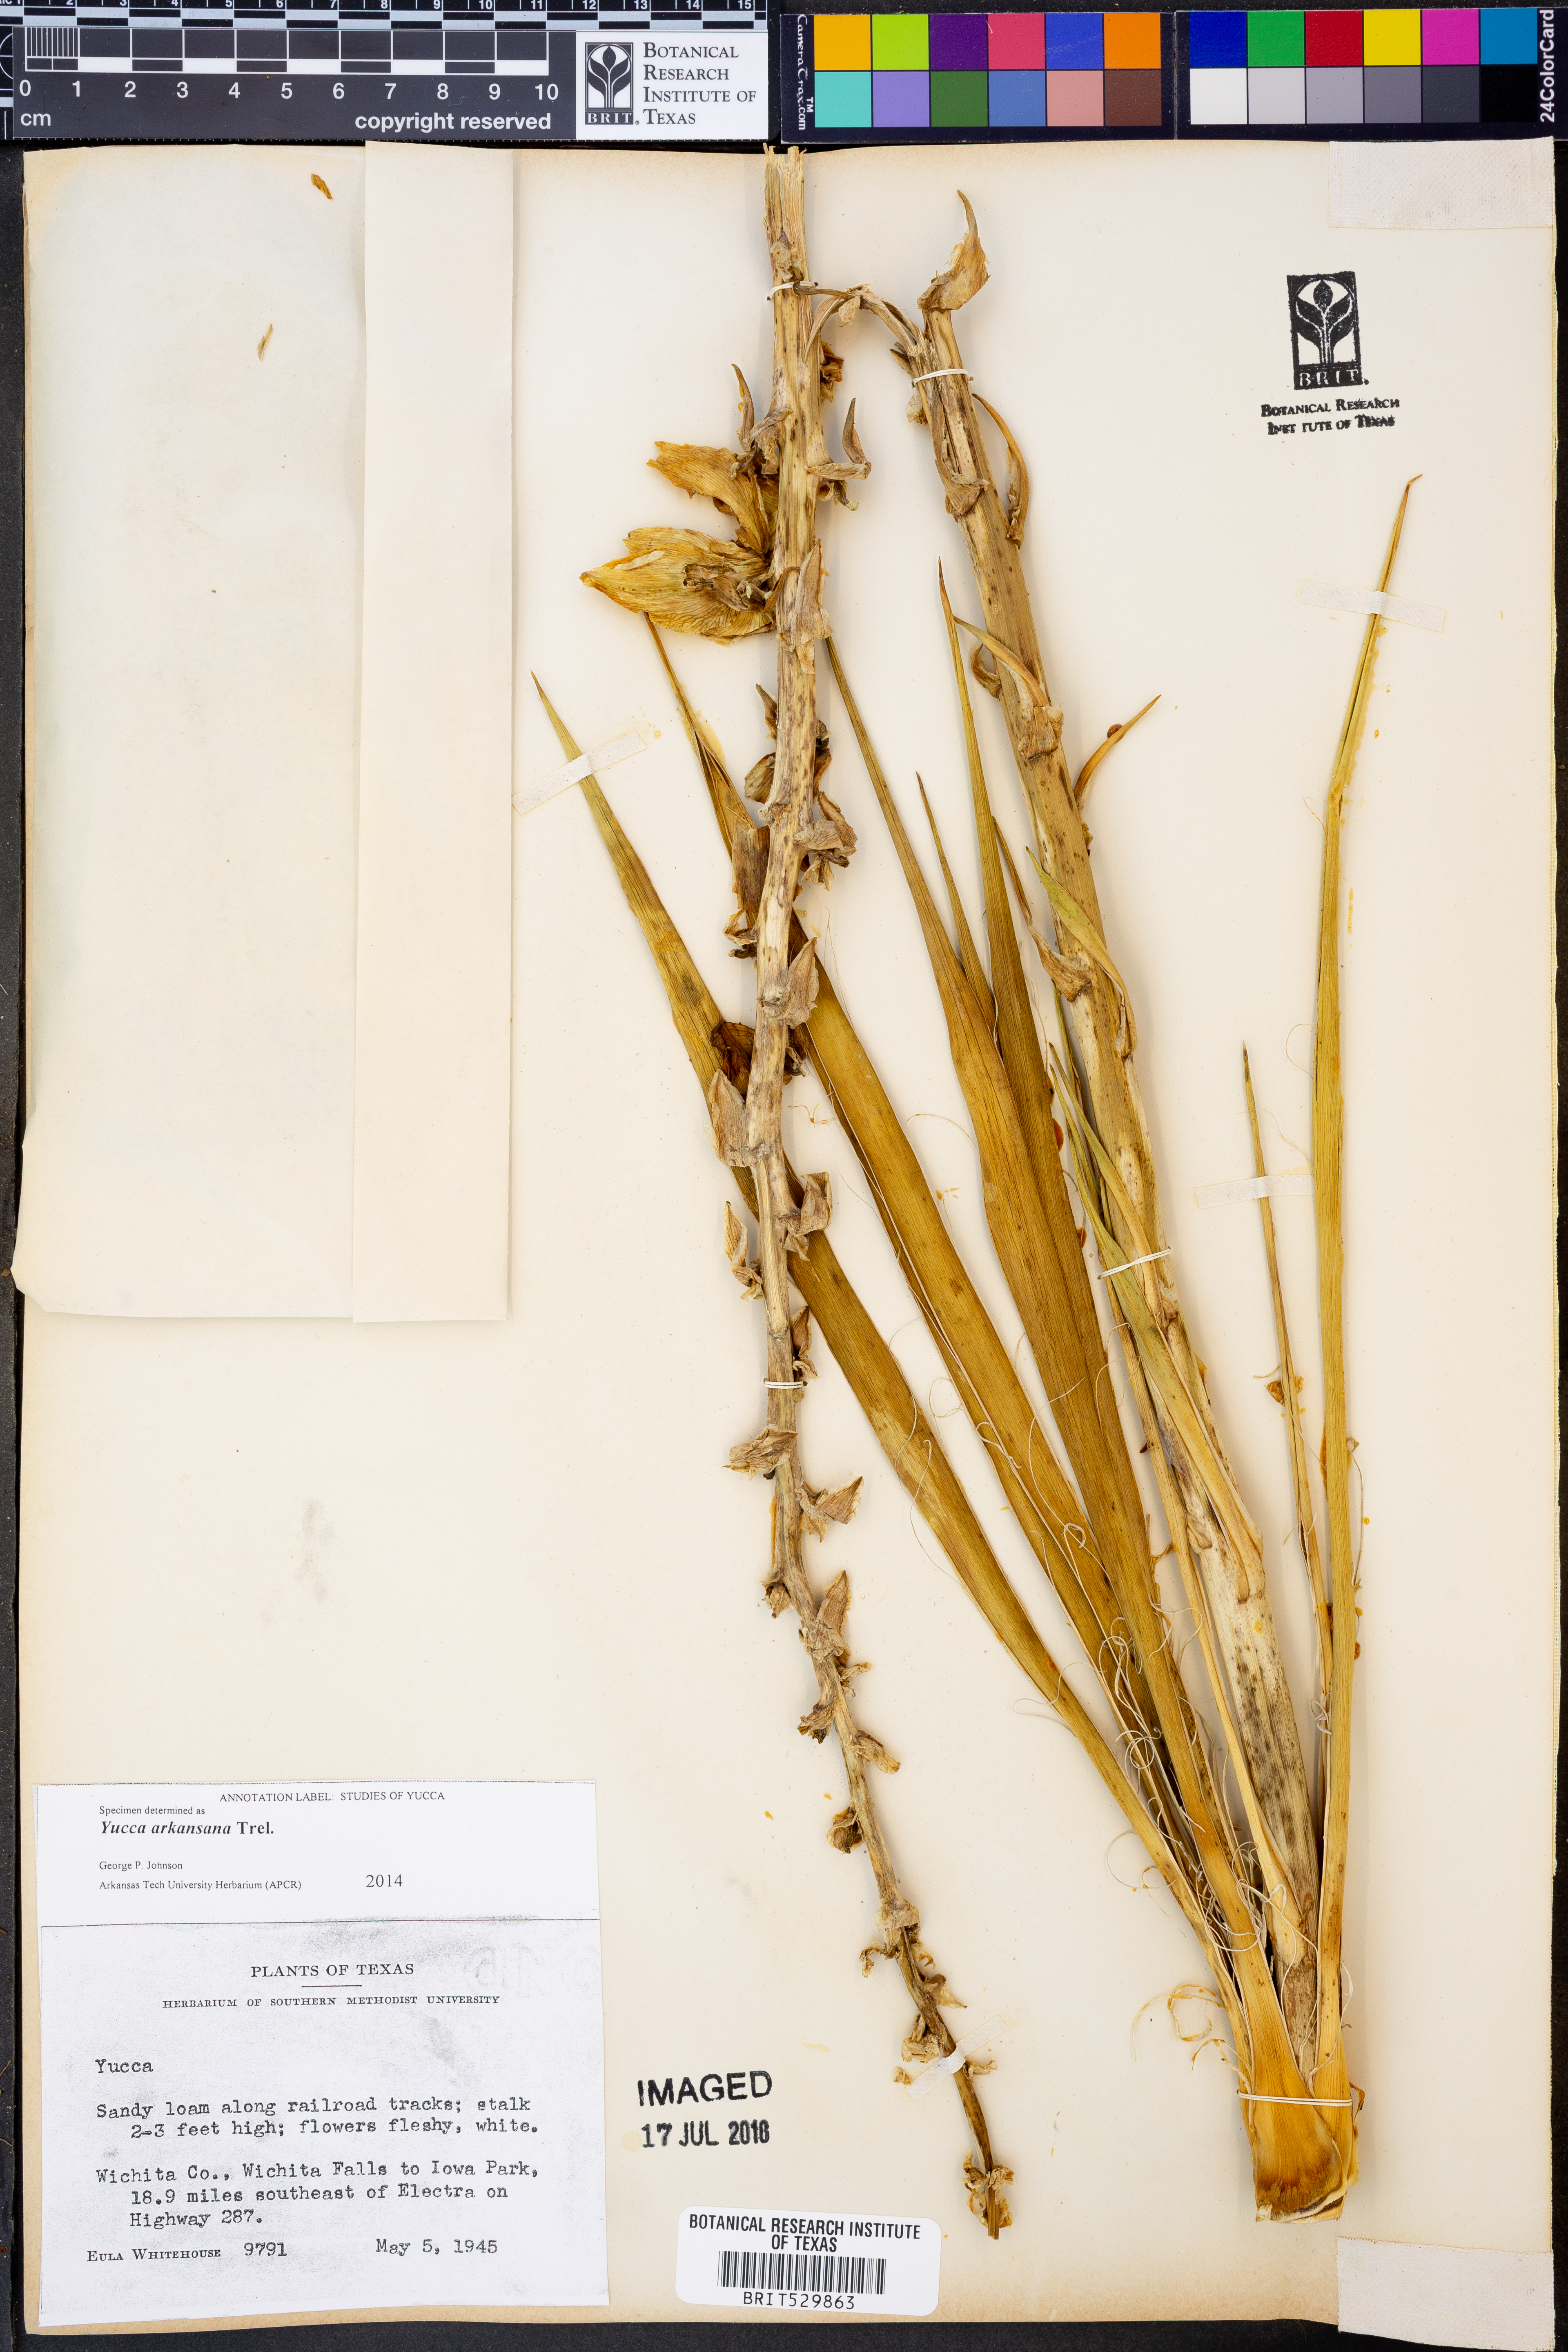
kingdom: Plantae
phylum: Tracheophyta
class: Liliopsida
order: Asparagales
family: Asparagaceae
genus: Yucca
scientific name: Yucca arkansana
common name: Arkansas yucca
